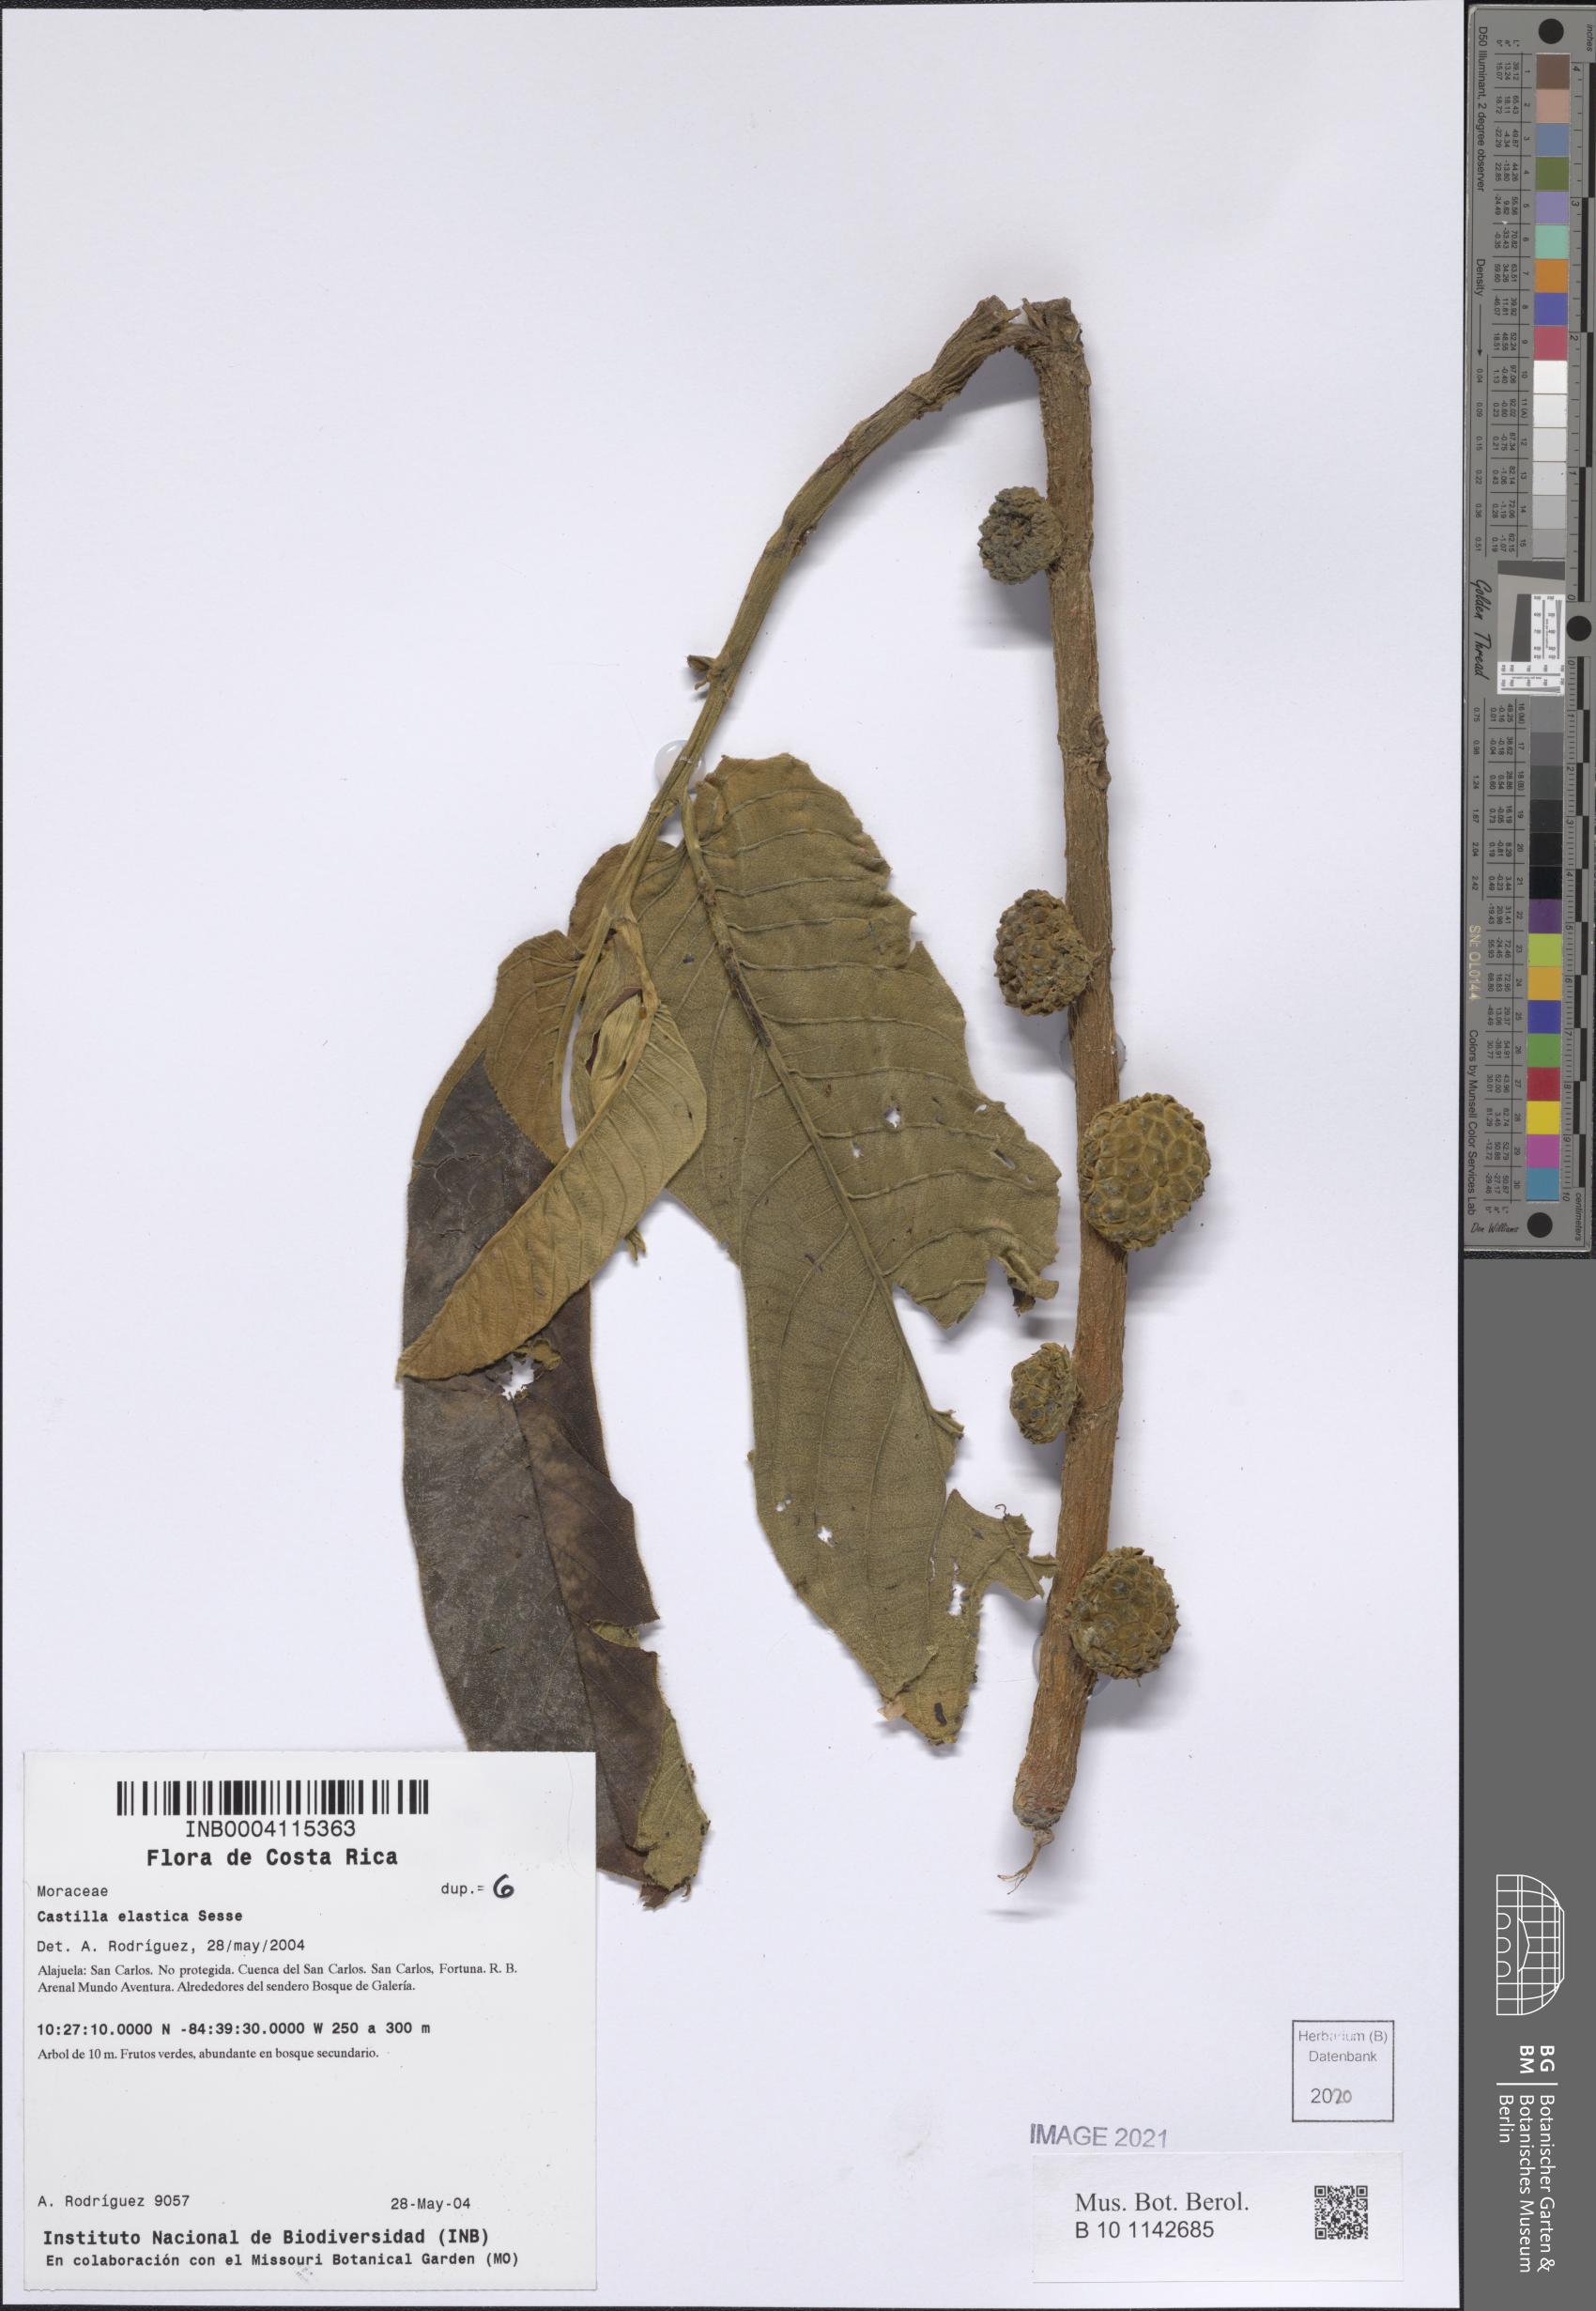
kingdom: Plantae
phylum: Tracheophyta
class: Magnoliopsida
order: Rosales
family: Moraceae
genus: Castilla
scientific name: Castilla elastica
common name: Castilla rubber
